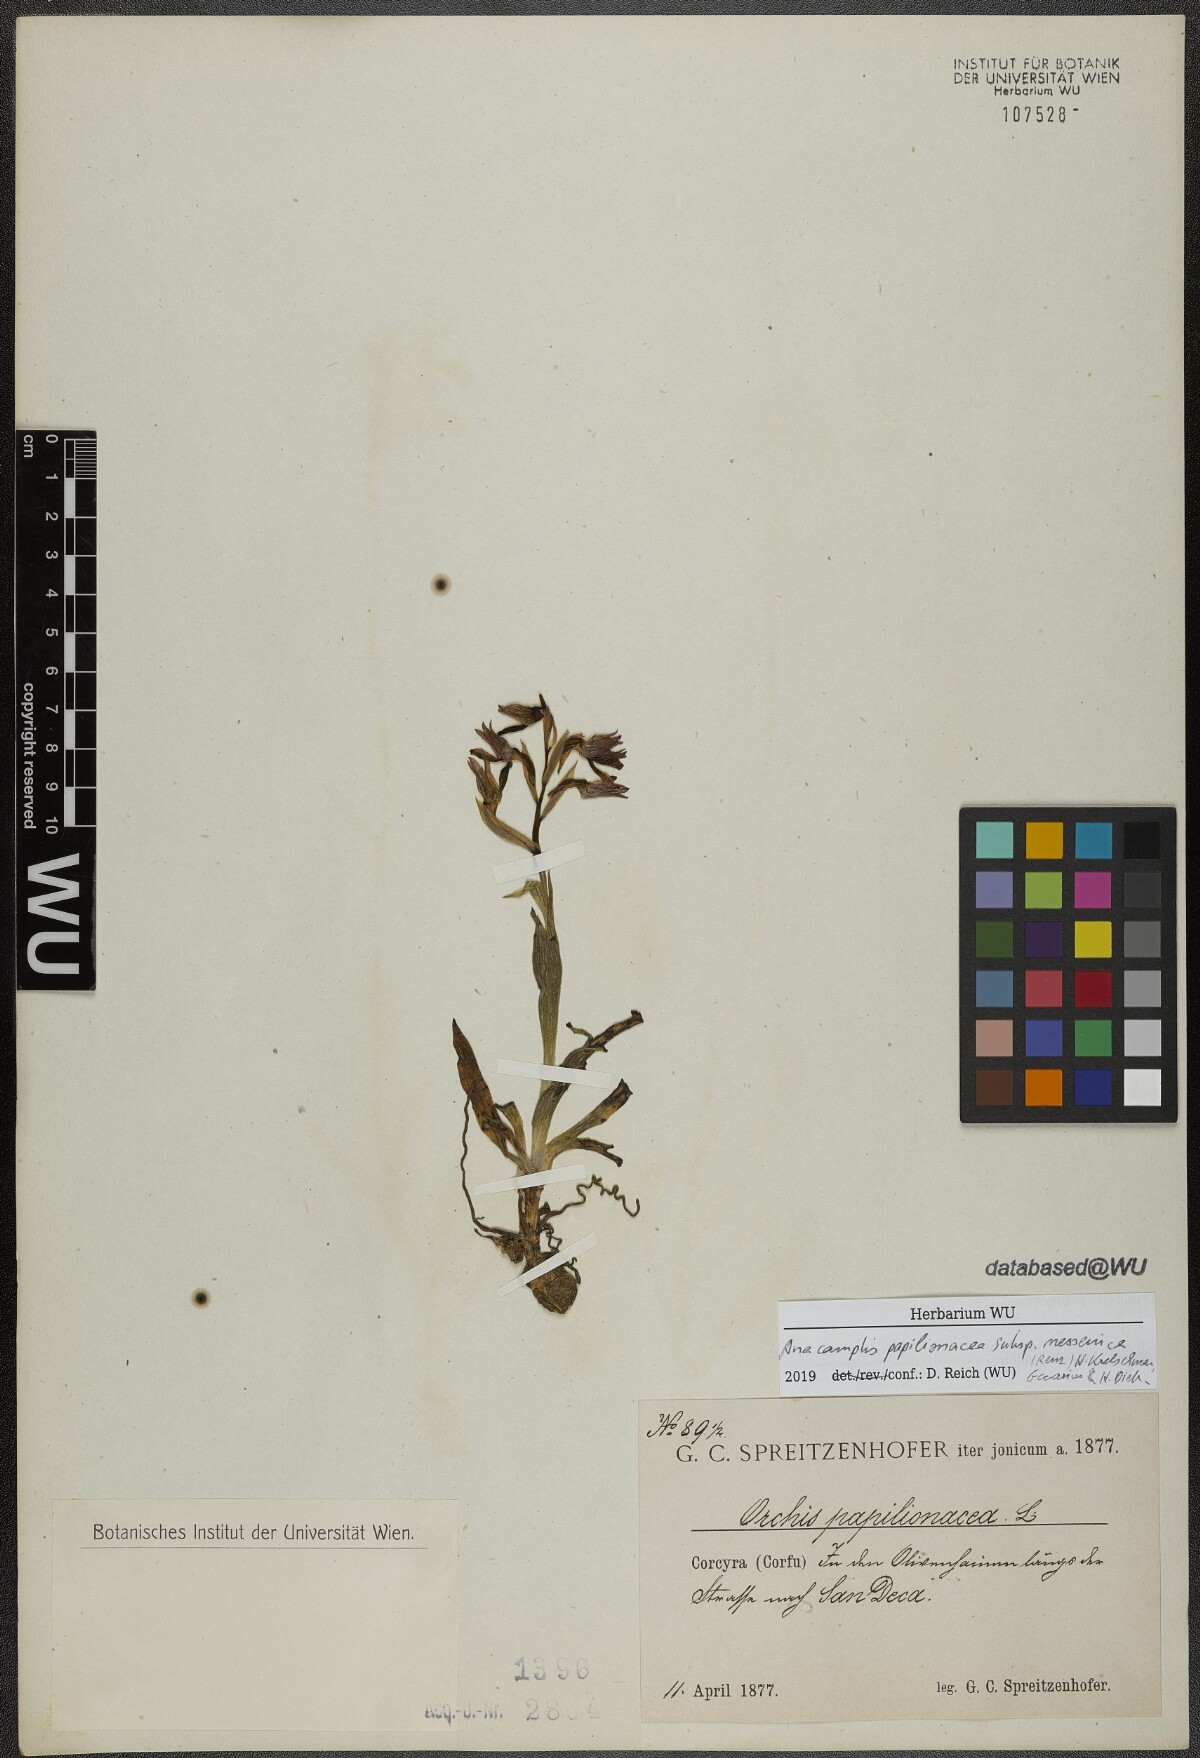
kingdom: Plantae
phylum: Tracheophyta
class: Liliopsida
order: Asparagales
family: Orchidaceae
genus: Anacamptis
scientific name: Anacamptis papilionacea
